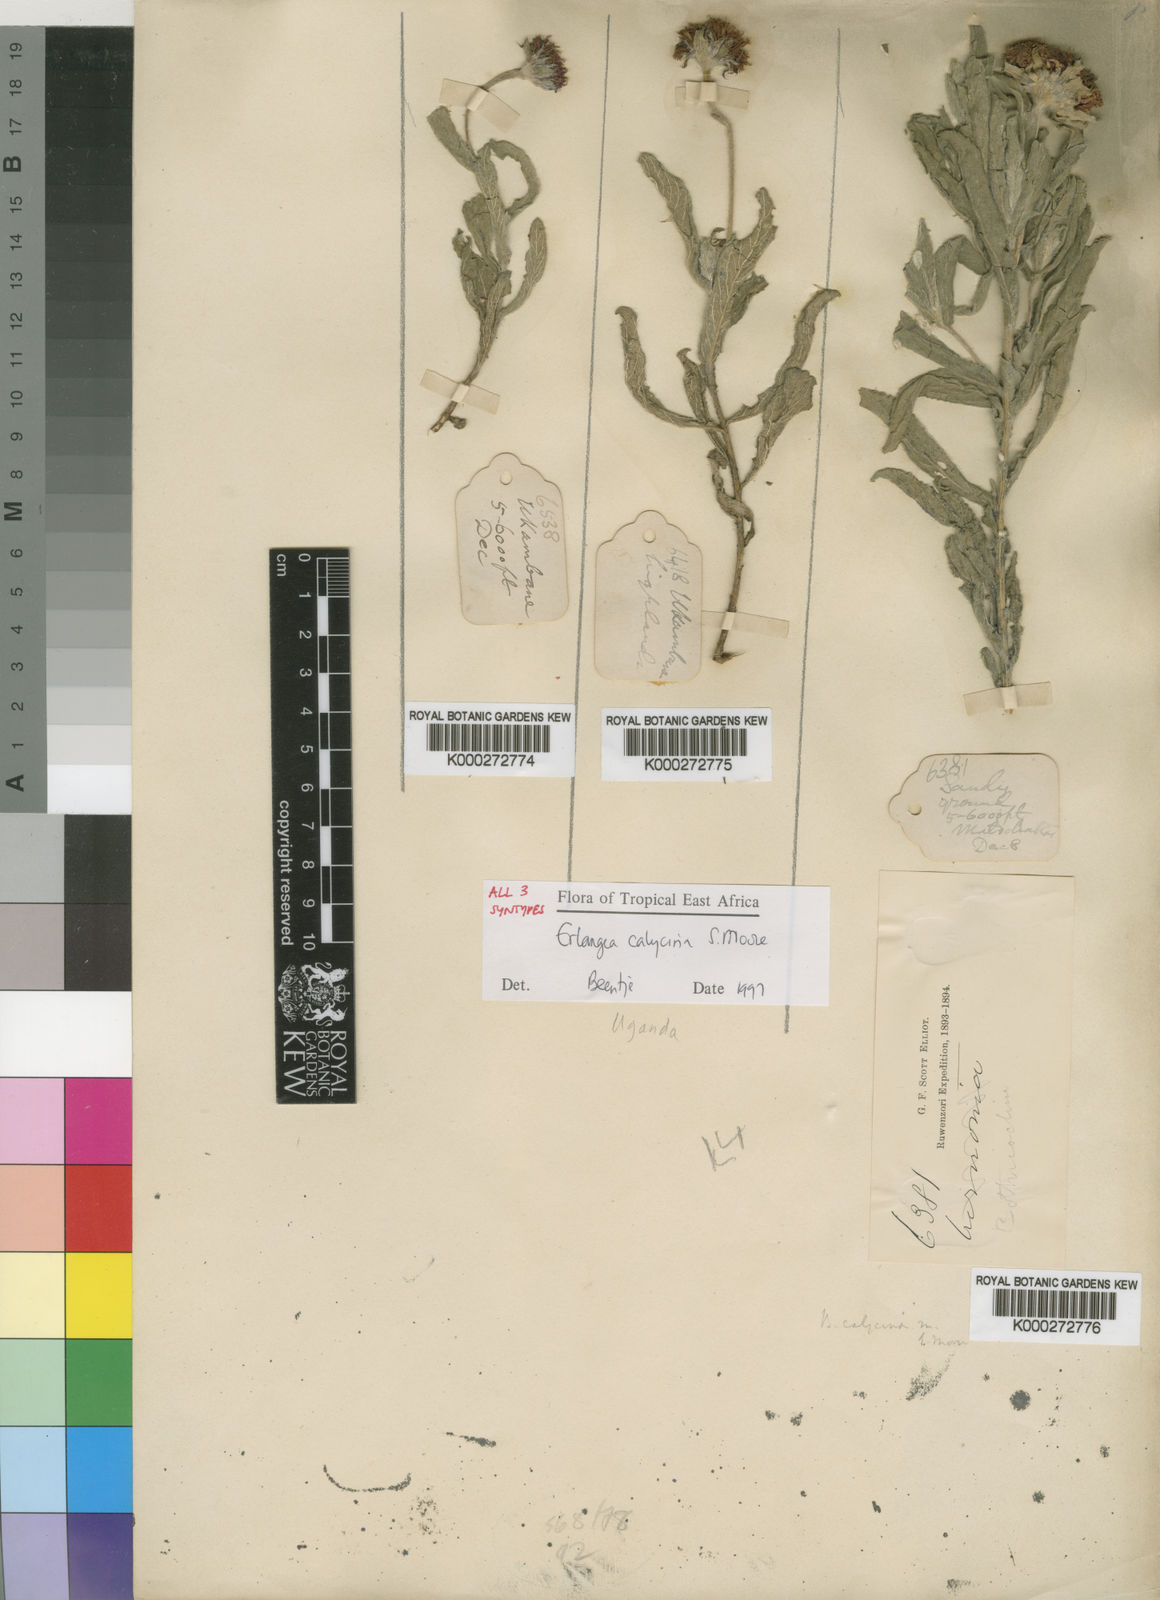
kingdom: Plantae
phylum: Tracheophyta
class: Magnoliopsida
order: Asterales
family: Asteraceae
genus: Erlangea
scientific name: Erlangea calycina
